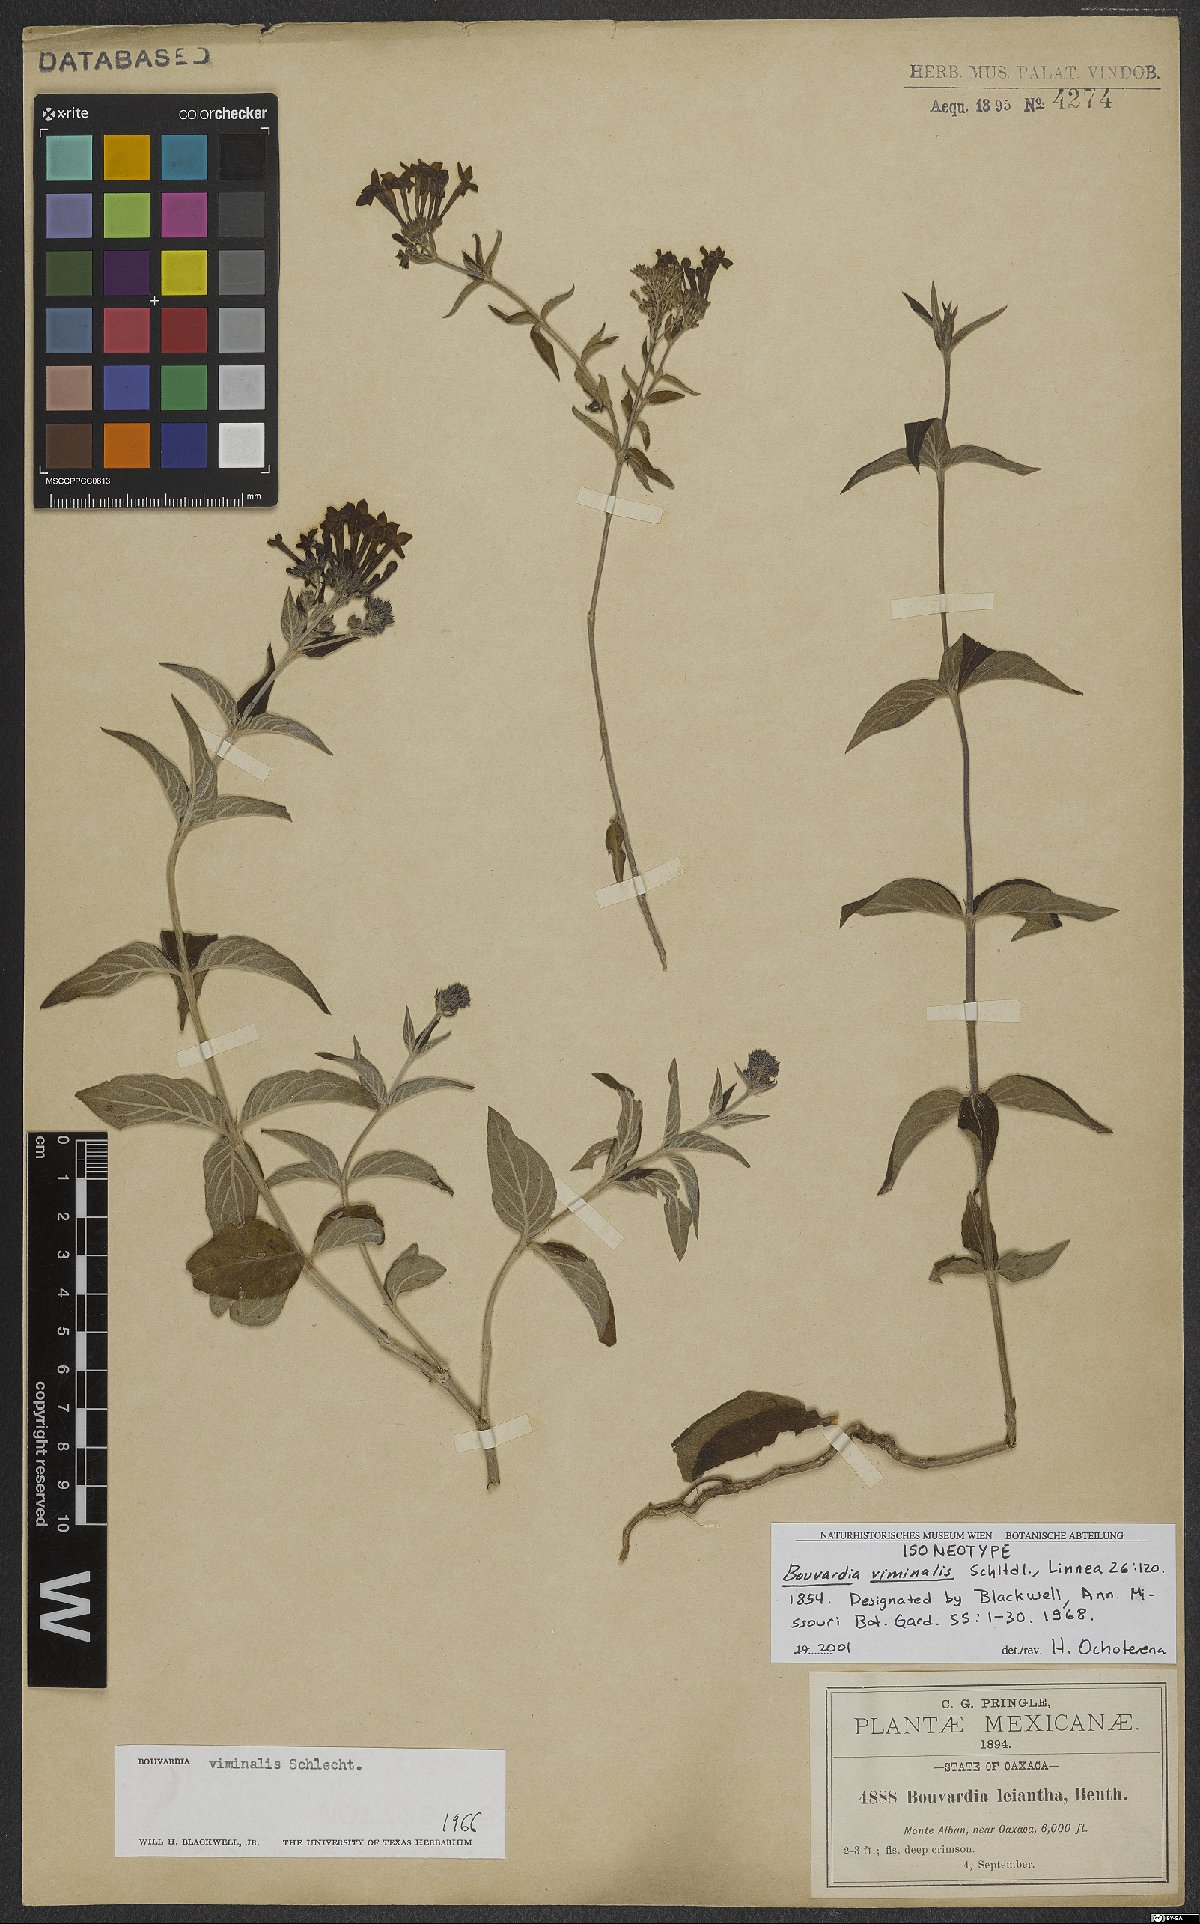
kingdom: Plantae
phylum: Tracheophyta
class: Magnoliopsida
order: Gentianales
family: Rubiaceae
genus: Bouvardia
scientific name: Bouvardia viminalis
